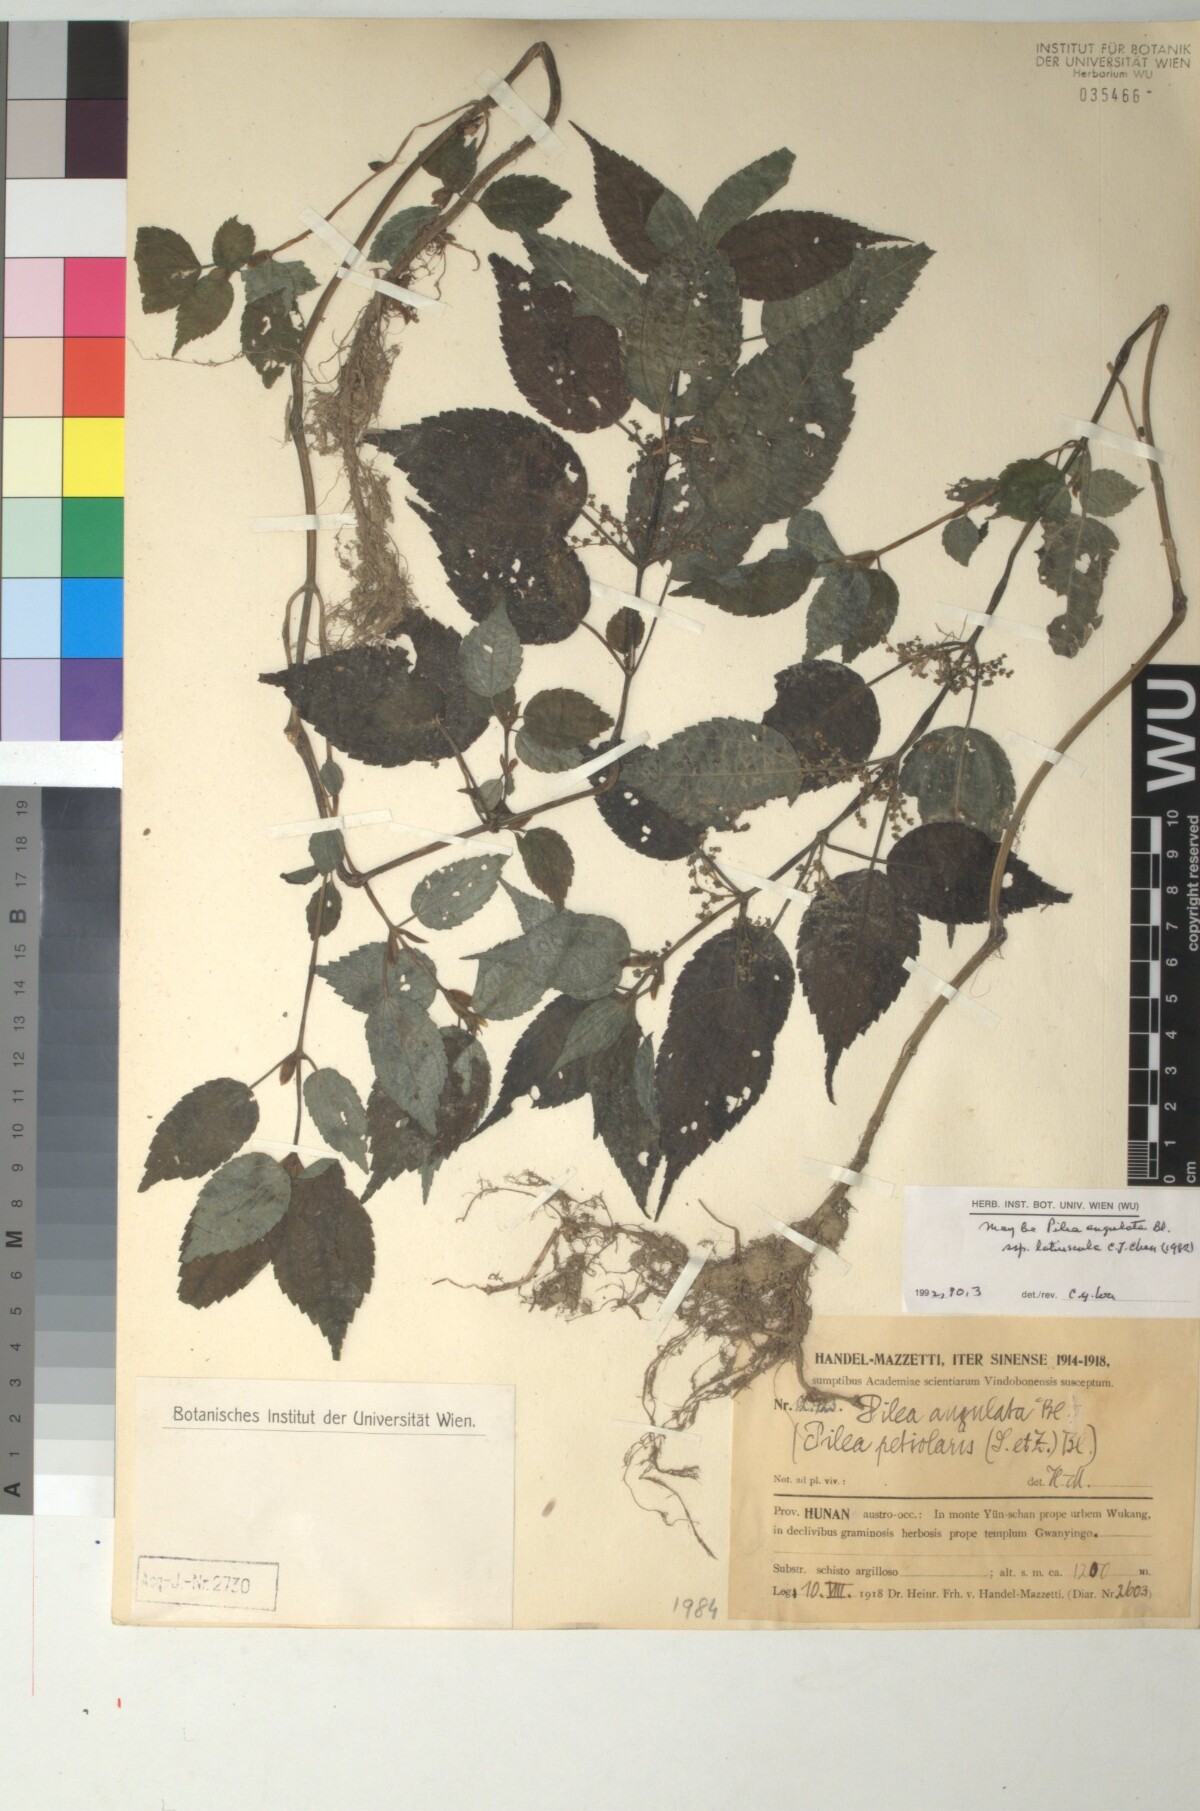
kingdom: Plantae
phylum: Tracheophyta
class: Magnoliopsida
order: Rosales
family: Urticaceae
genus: Pilea
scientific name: Pilea angulata
